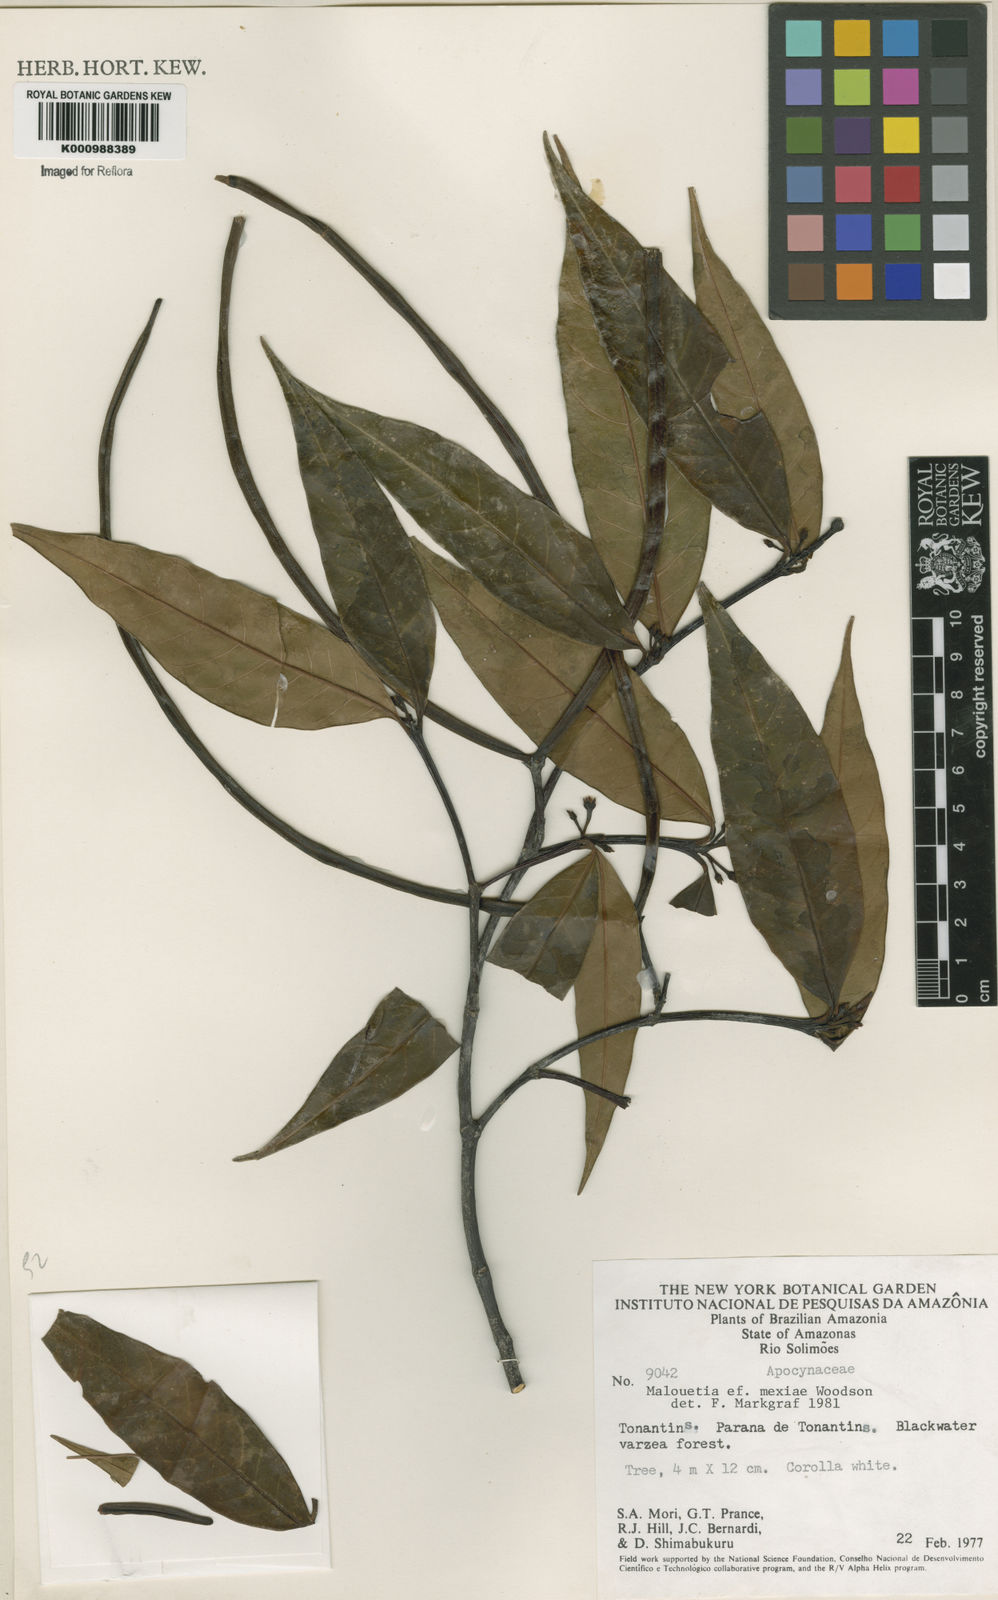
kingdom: Plantae
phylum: Tracheophyta
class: Magnoliopsida
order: Gentianales
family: Apocynaceae
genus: Malouetia
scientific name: Malouetia
